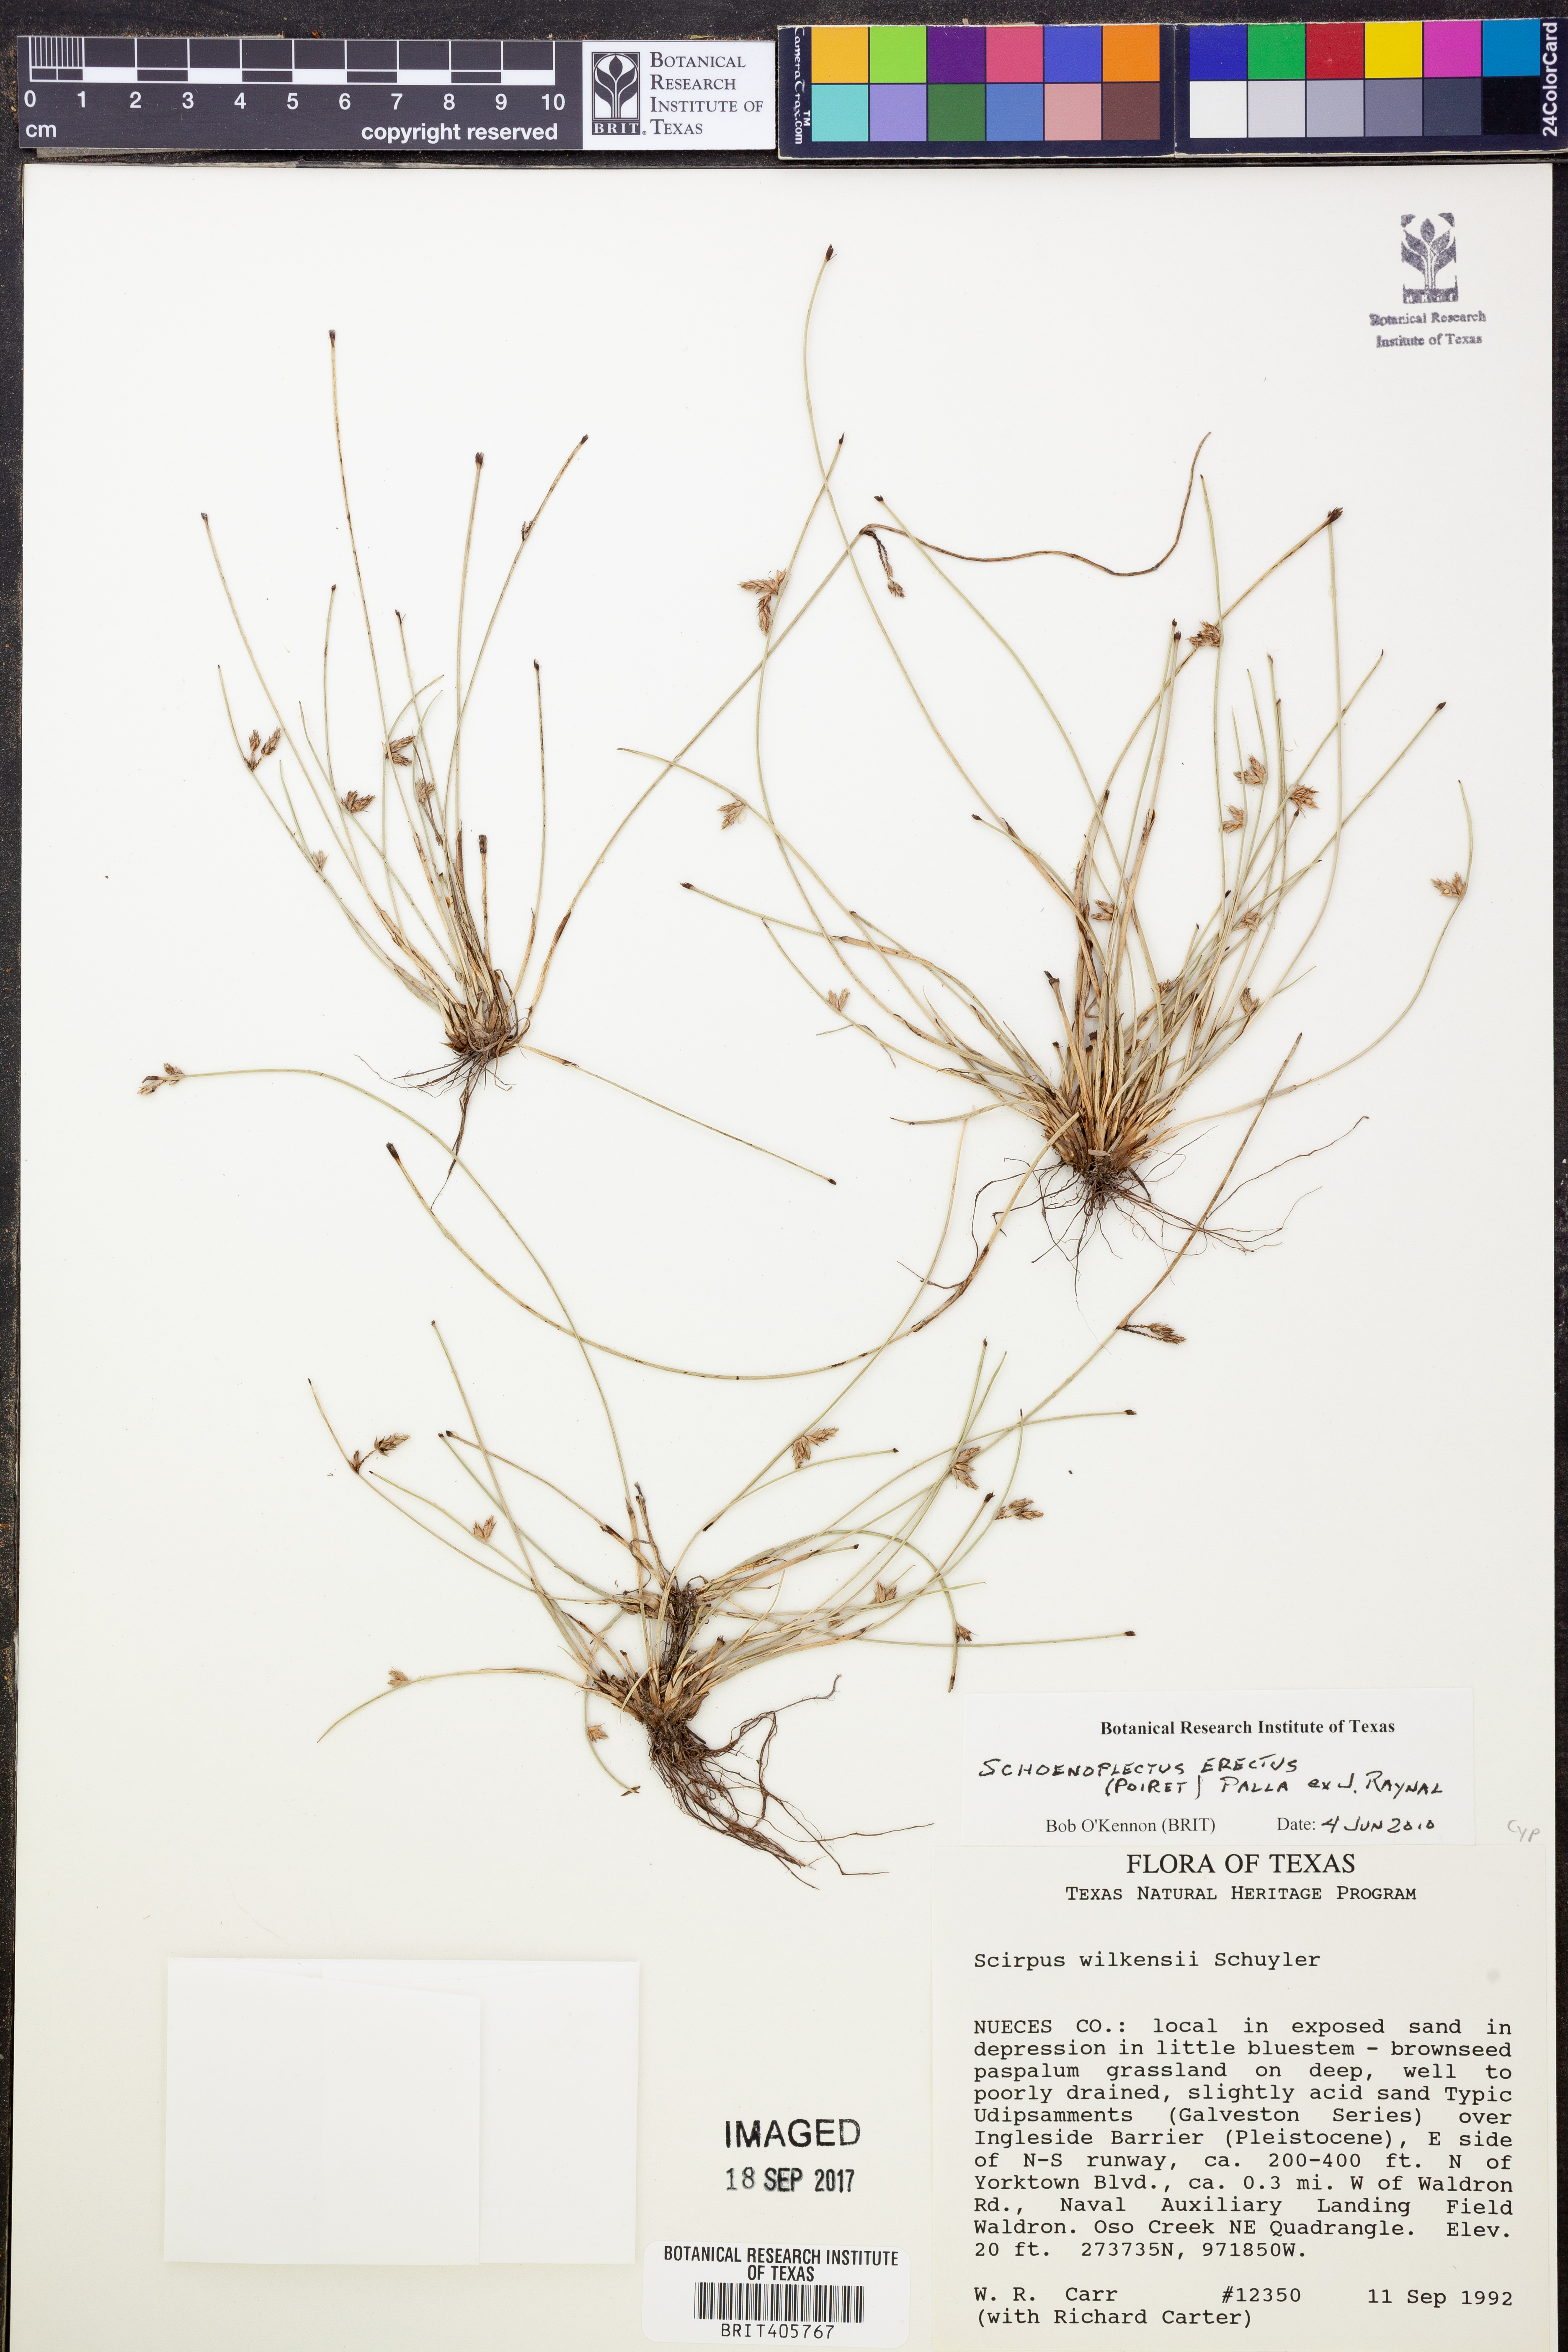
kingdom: Plantae
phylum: Tracheophyta
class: Liliopsida
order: Poales
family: Cyperaceae
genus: Schoenoplectiella
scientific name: Schoenoplectiella erecta
